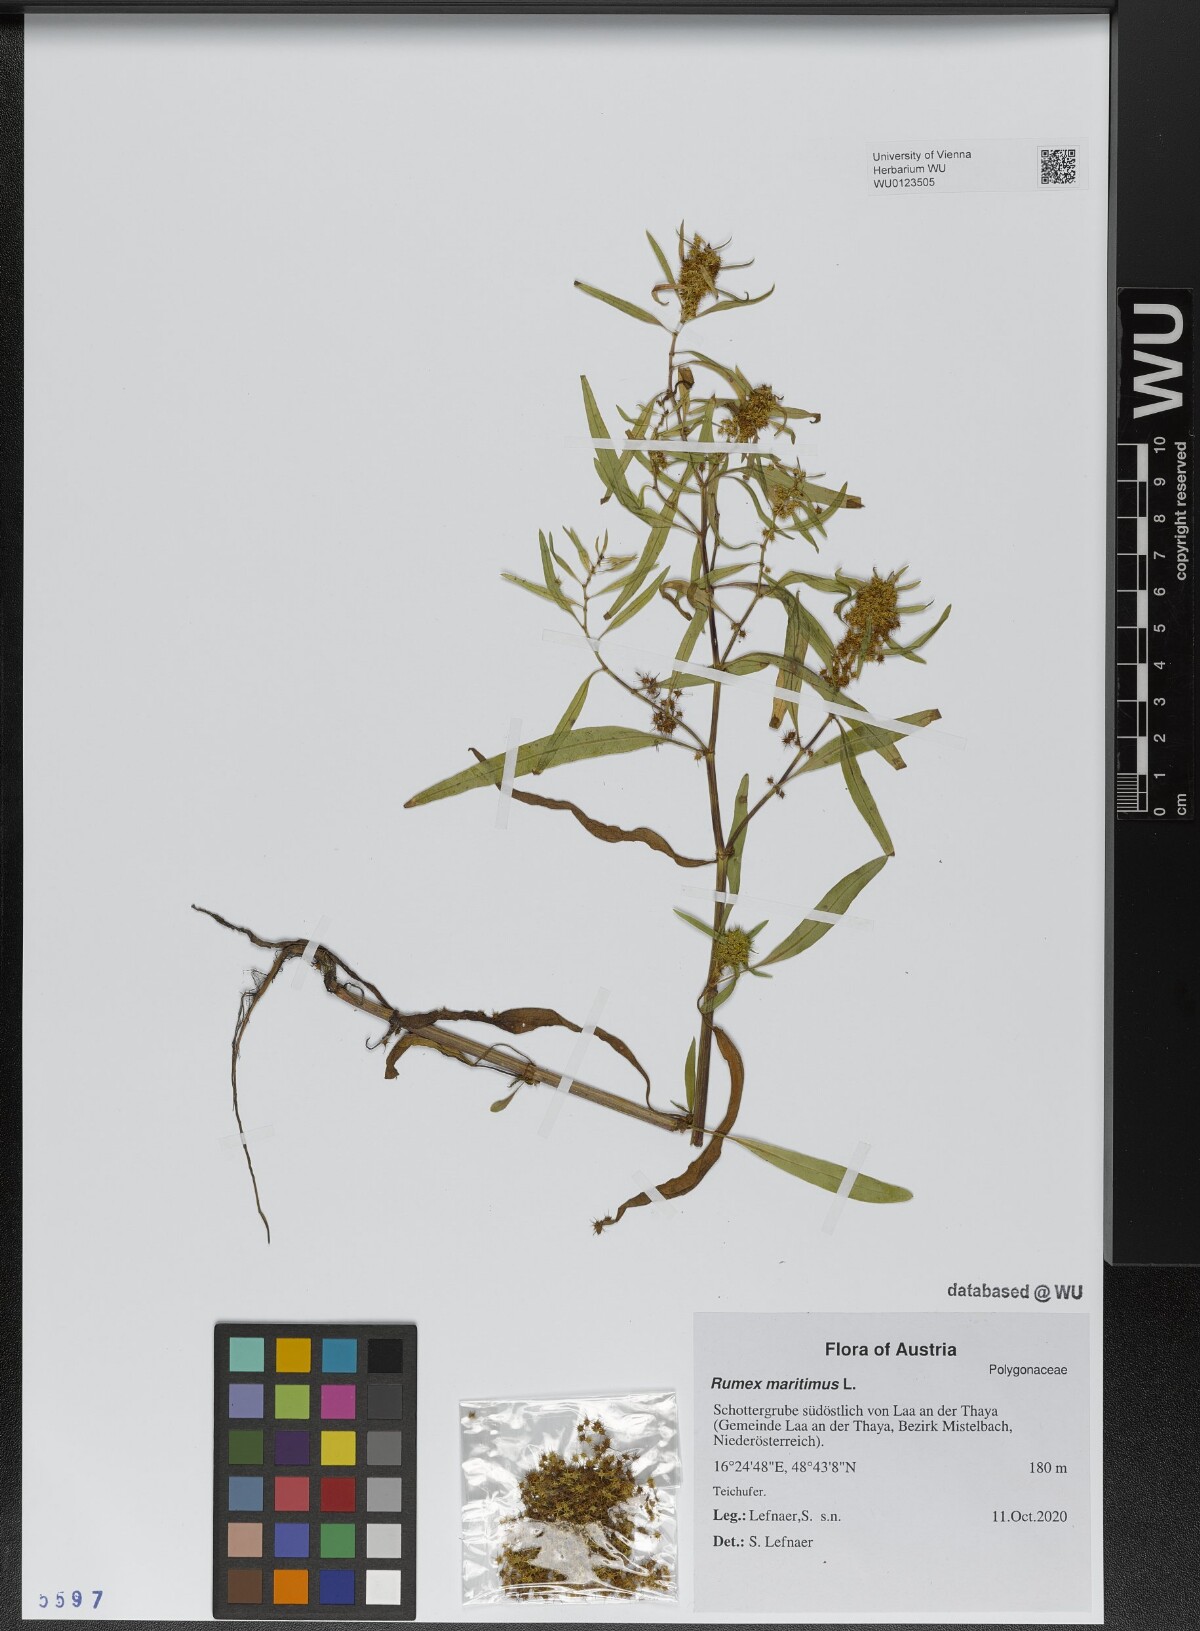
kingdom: Plantae
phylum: Tracheophyta
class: Magnoliopsida
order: Caryophyllales
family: Polygonaceae
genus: Rumex
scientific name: Rumex maritimus
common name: Golden dock
